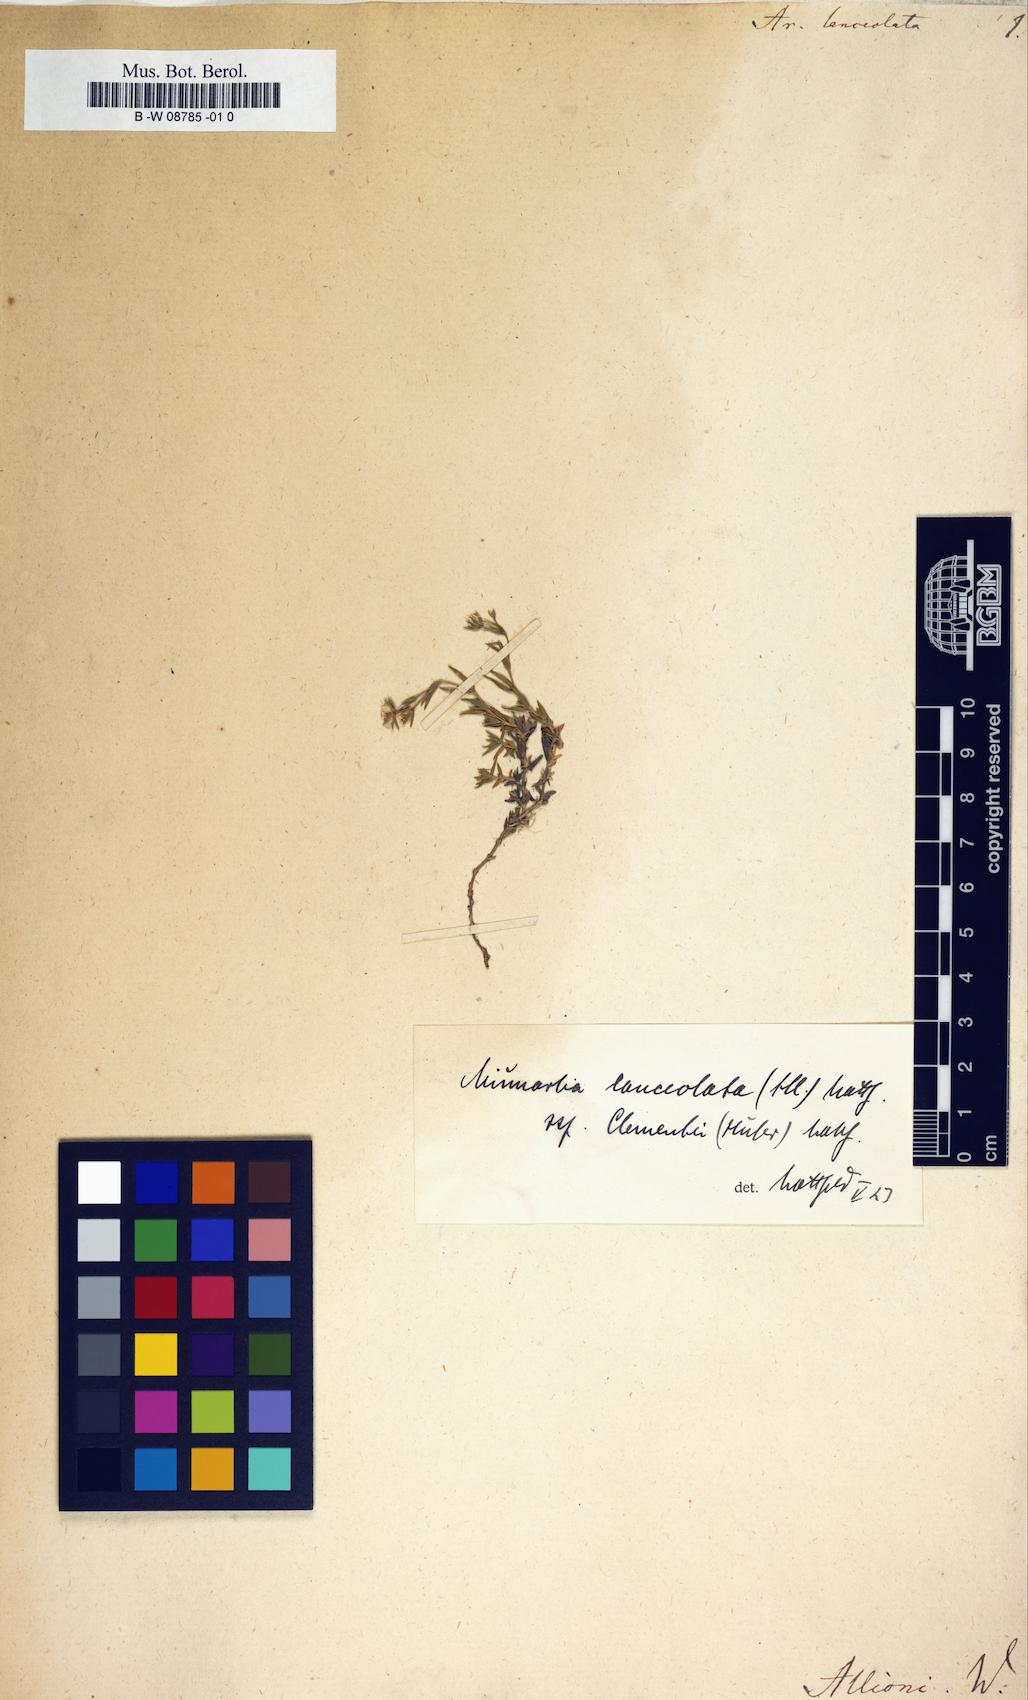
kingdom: Plantae
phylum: Tracheophyta
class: Magnoliopsida
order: Caryophyllales
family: Caryophyllaceae
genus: Facchinia
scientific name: Facchinia lanceolata
